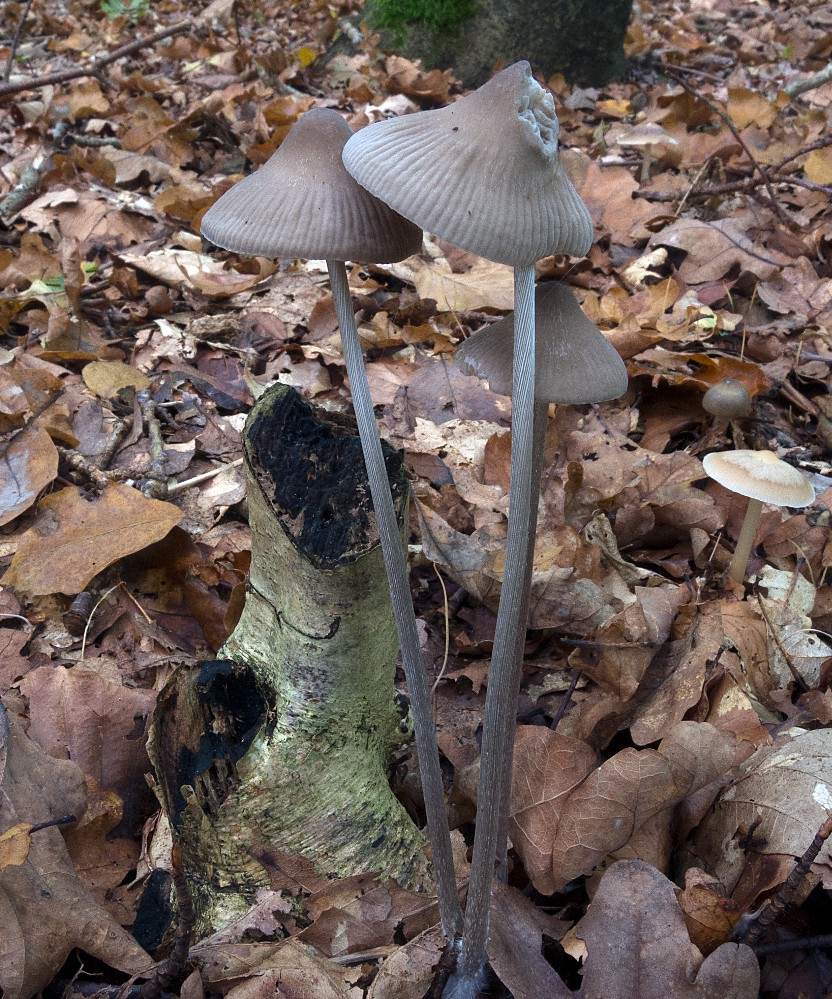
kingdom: Fungi
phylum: Basidiomycota
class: Agaricomycetes
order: Agaricales
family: Mycenaceae
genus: Mycena
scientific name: Mycena polygramma
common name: mangestribet huesvamp
